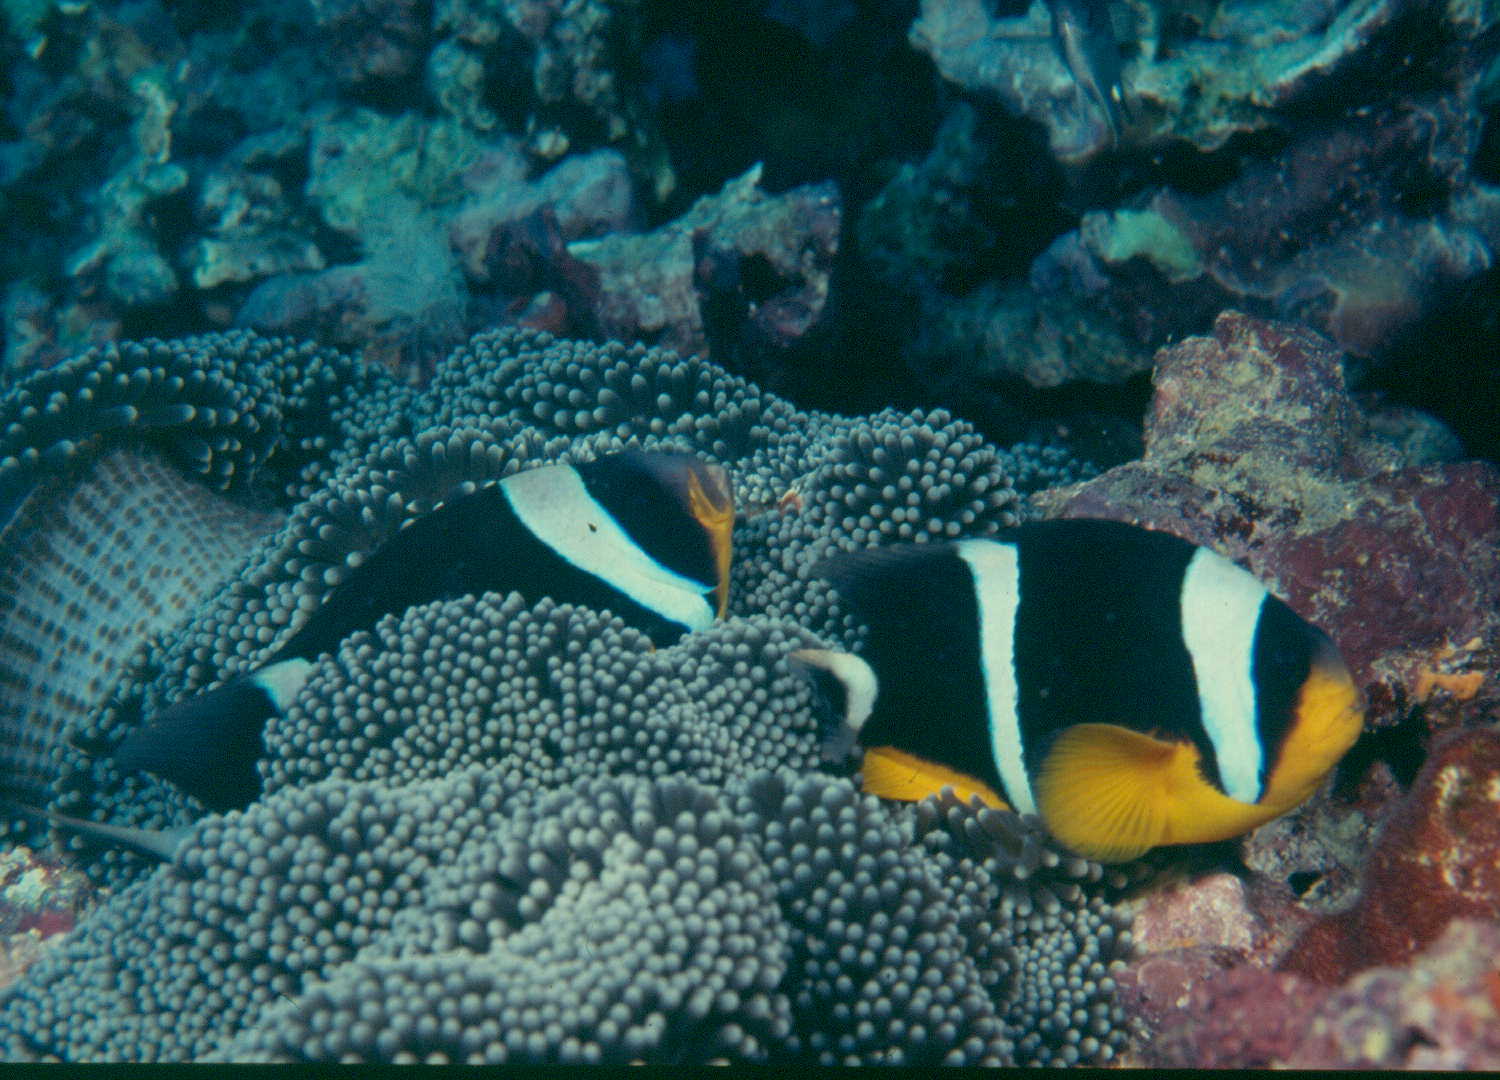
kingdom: Animalia
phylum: Chordata
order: Perciformes
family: Pomacentridae
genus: Amphiprion
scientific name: Amphiprion fuscocaudatus
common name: Seychelles anemonefish
